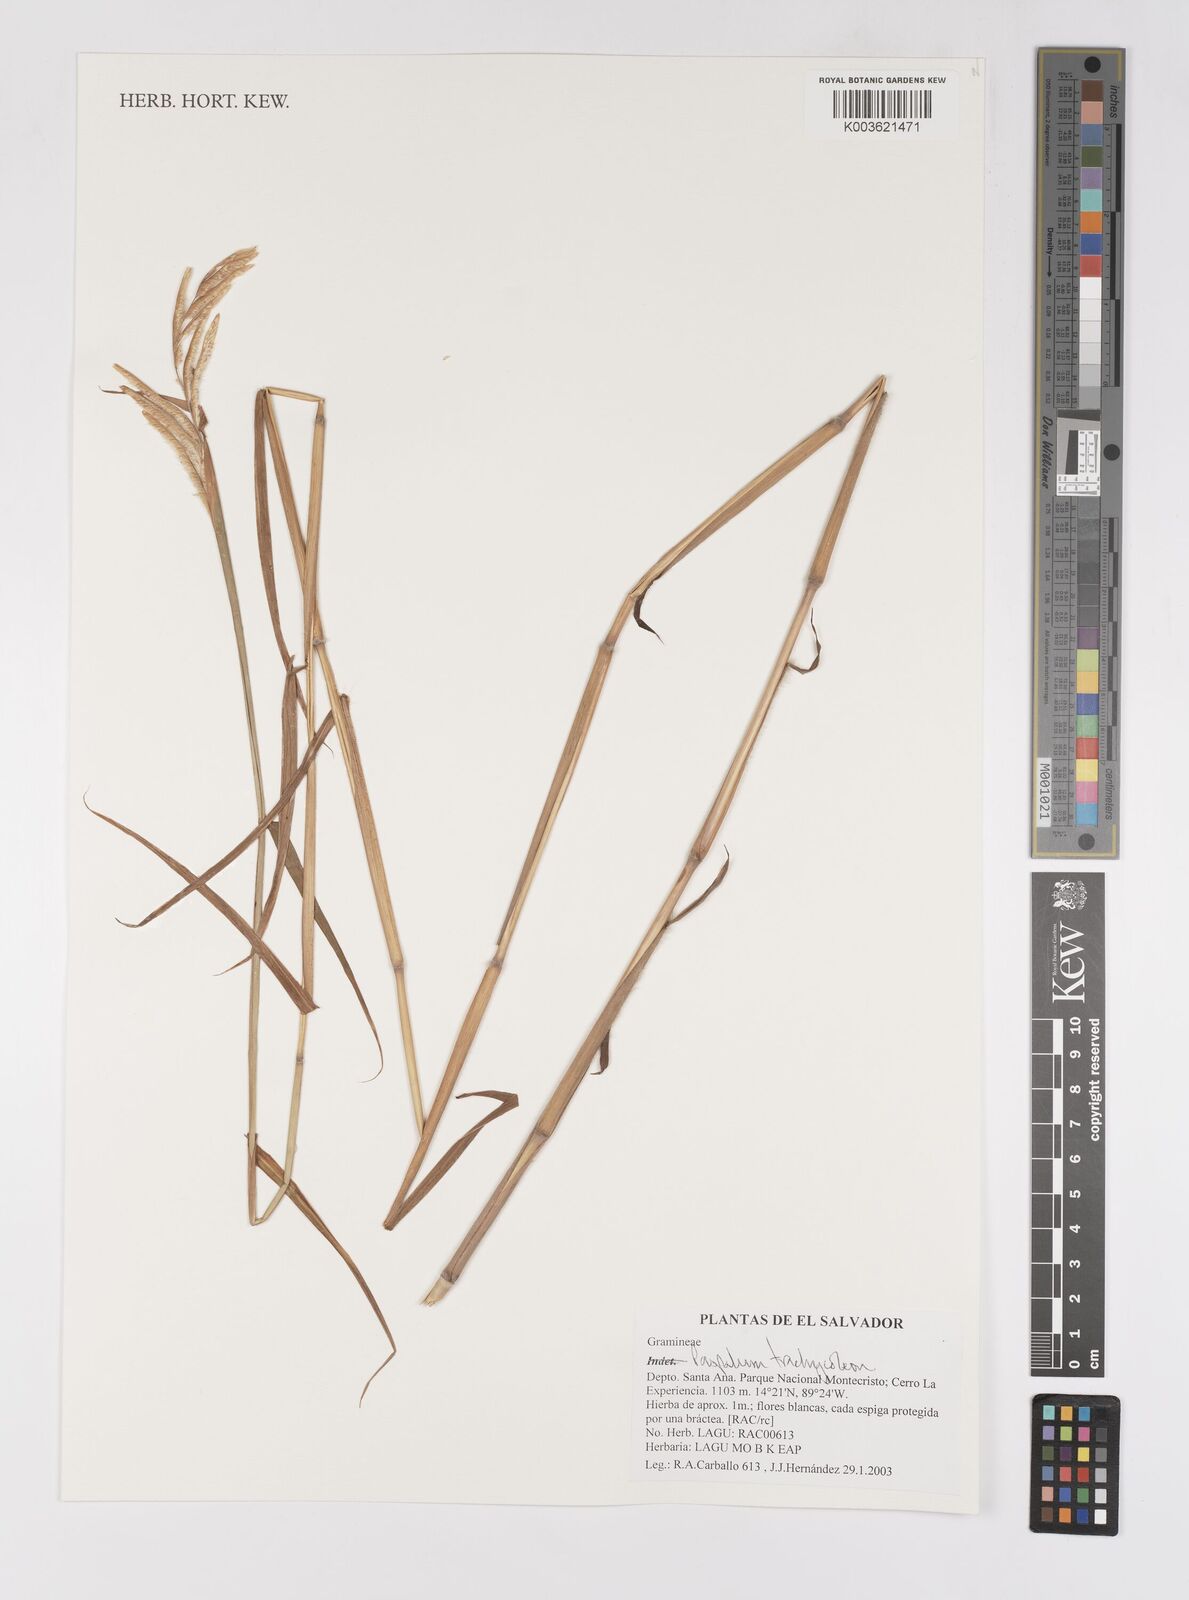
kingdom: Plantae
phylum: Tracheophyta
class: Liliopsida
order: Poales
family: Poaceae
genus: Paspalum
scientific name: Paspalum trachycoleon
